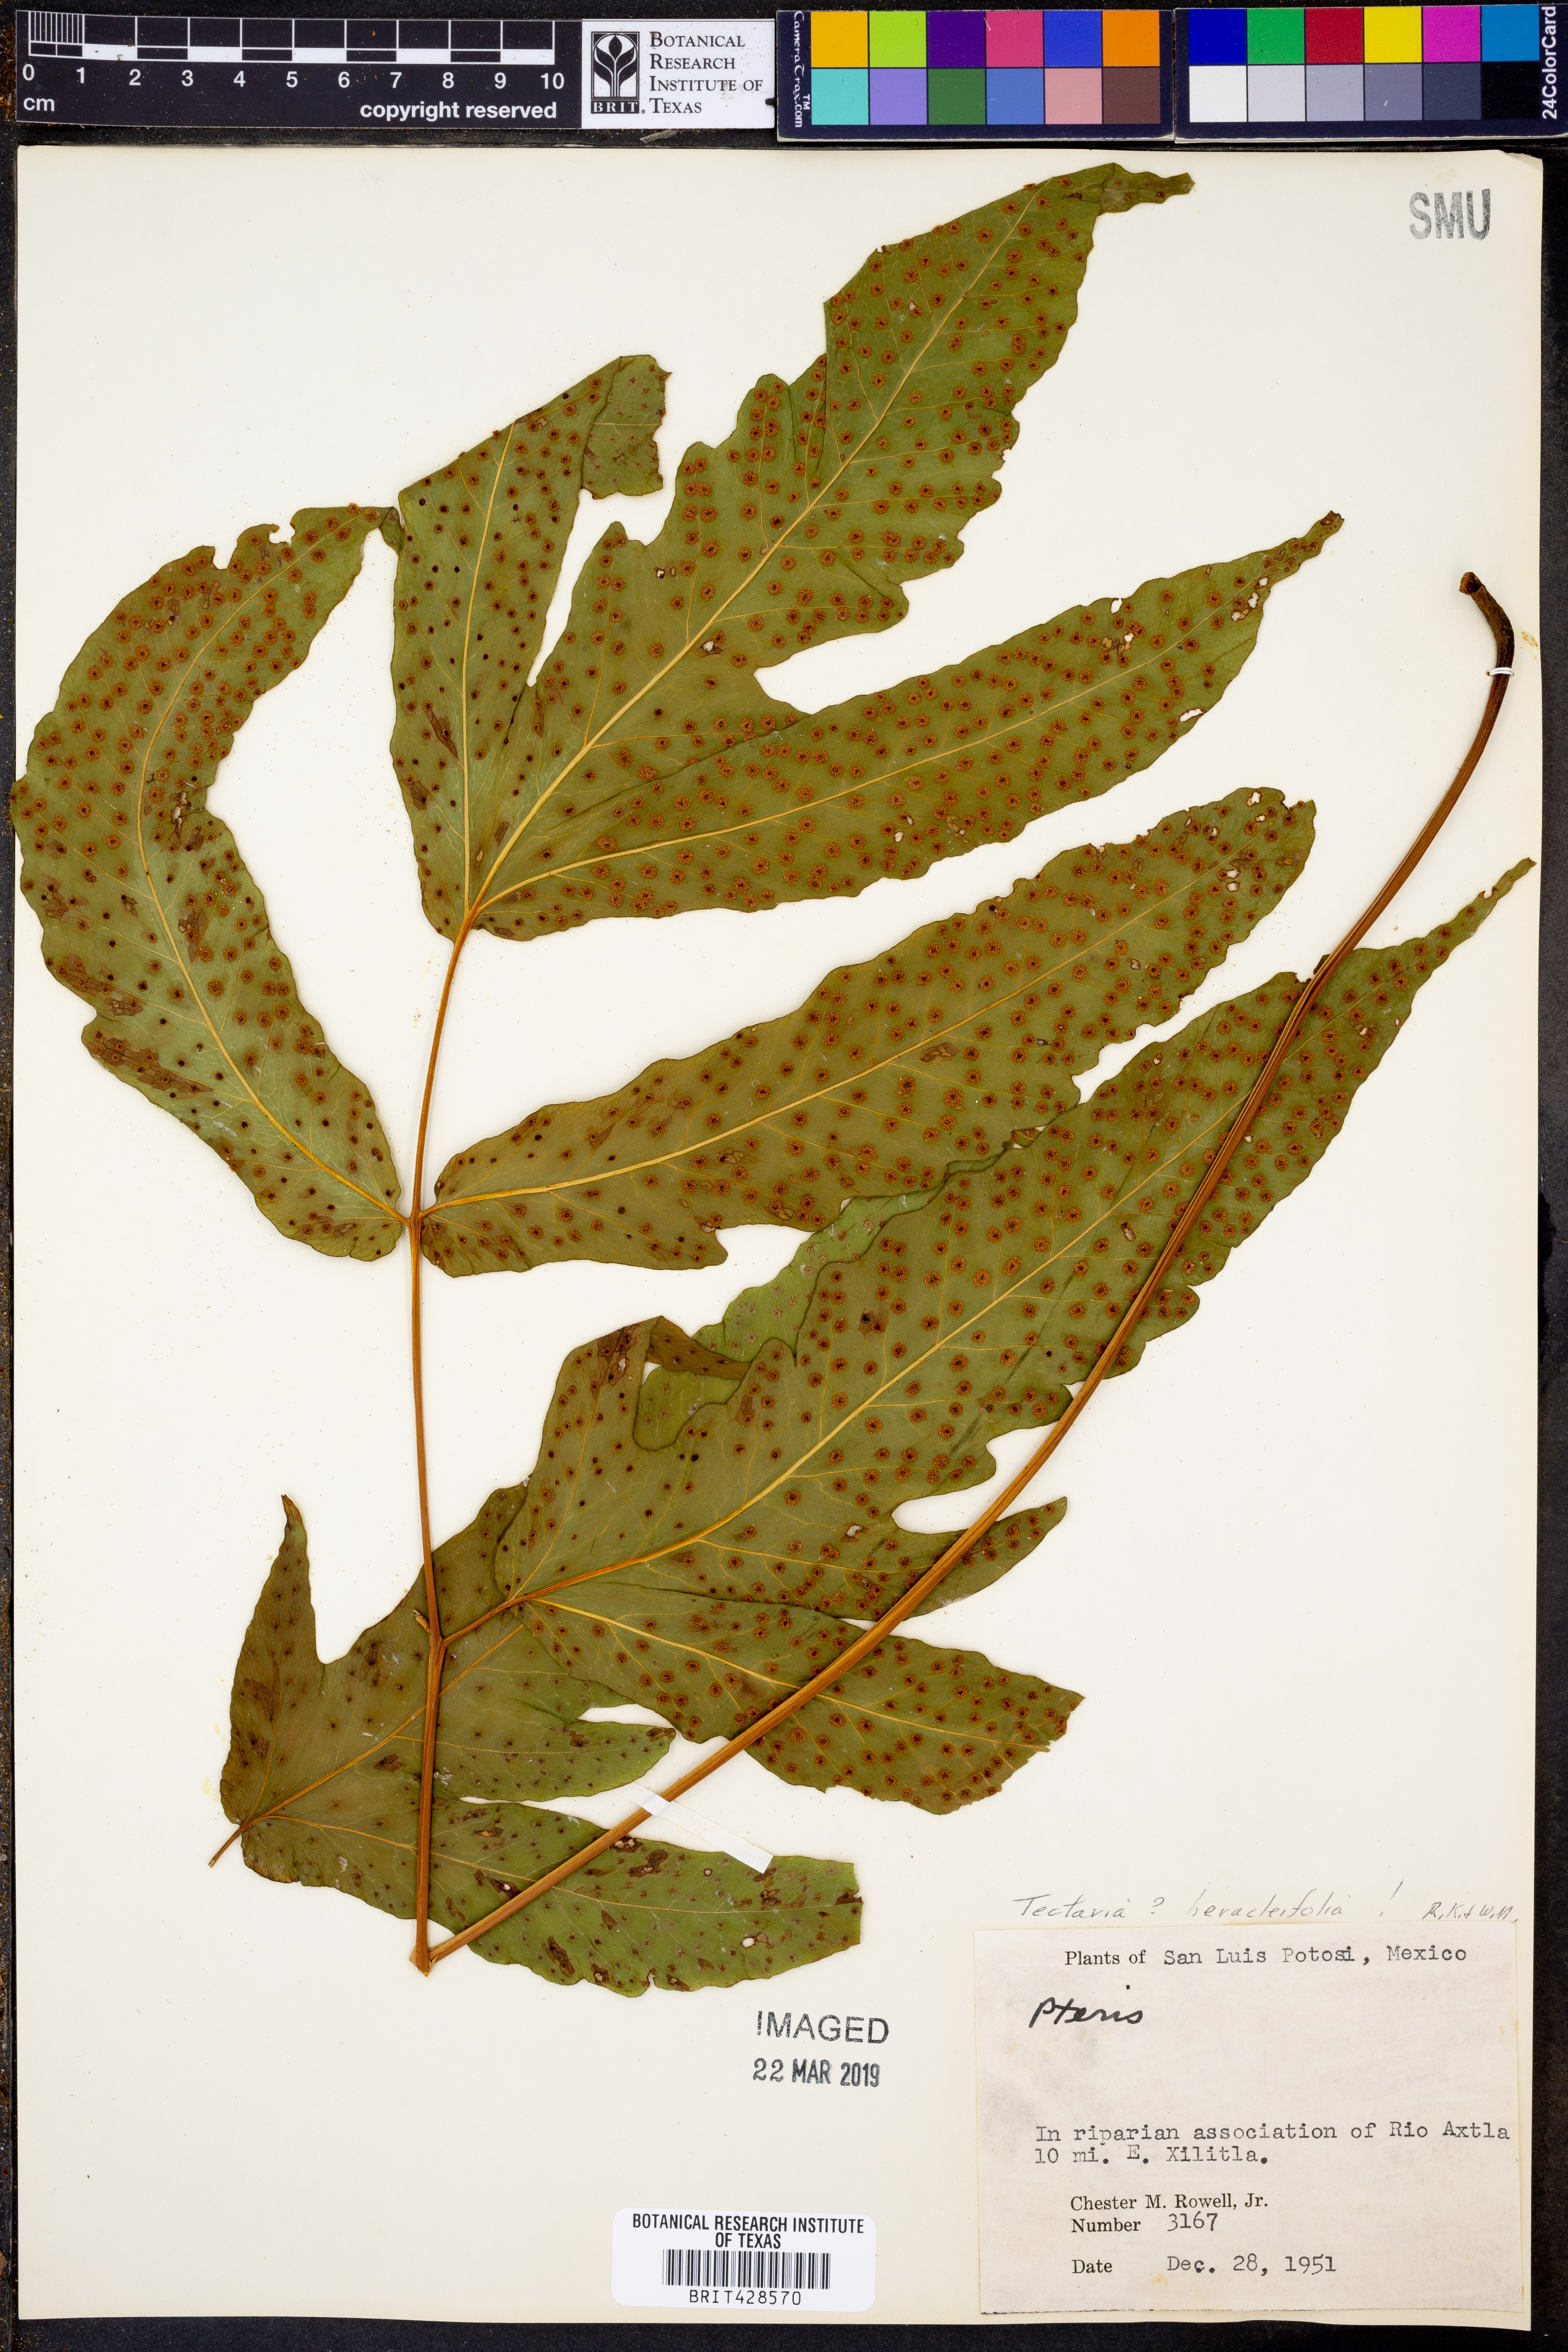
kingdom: Plantae
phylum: Tracheophyta
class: Polypodiopsida
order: Polypodiales
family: Tectariaceae
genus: Tectaria
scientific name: Tectaria heracleifolia
